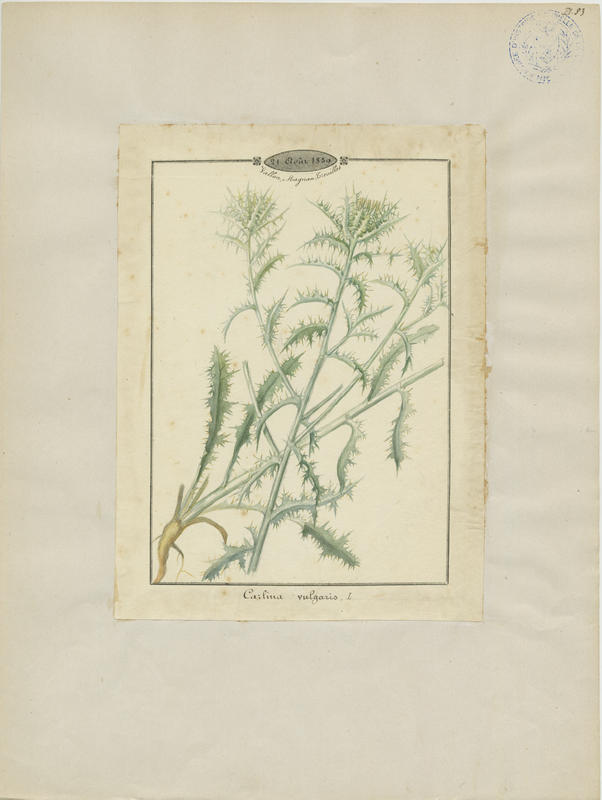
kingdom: Plantae
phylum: Tracheophyta
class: Magnoliopsida
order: Asterales
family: Asteraceae
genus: Carlina
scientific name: Carlina vulgaris
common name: Carline thistle
